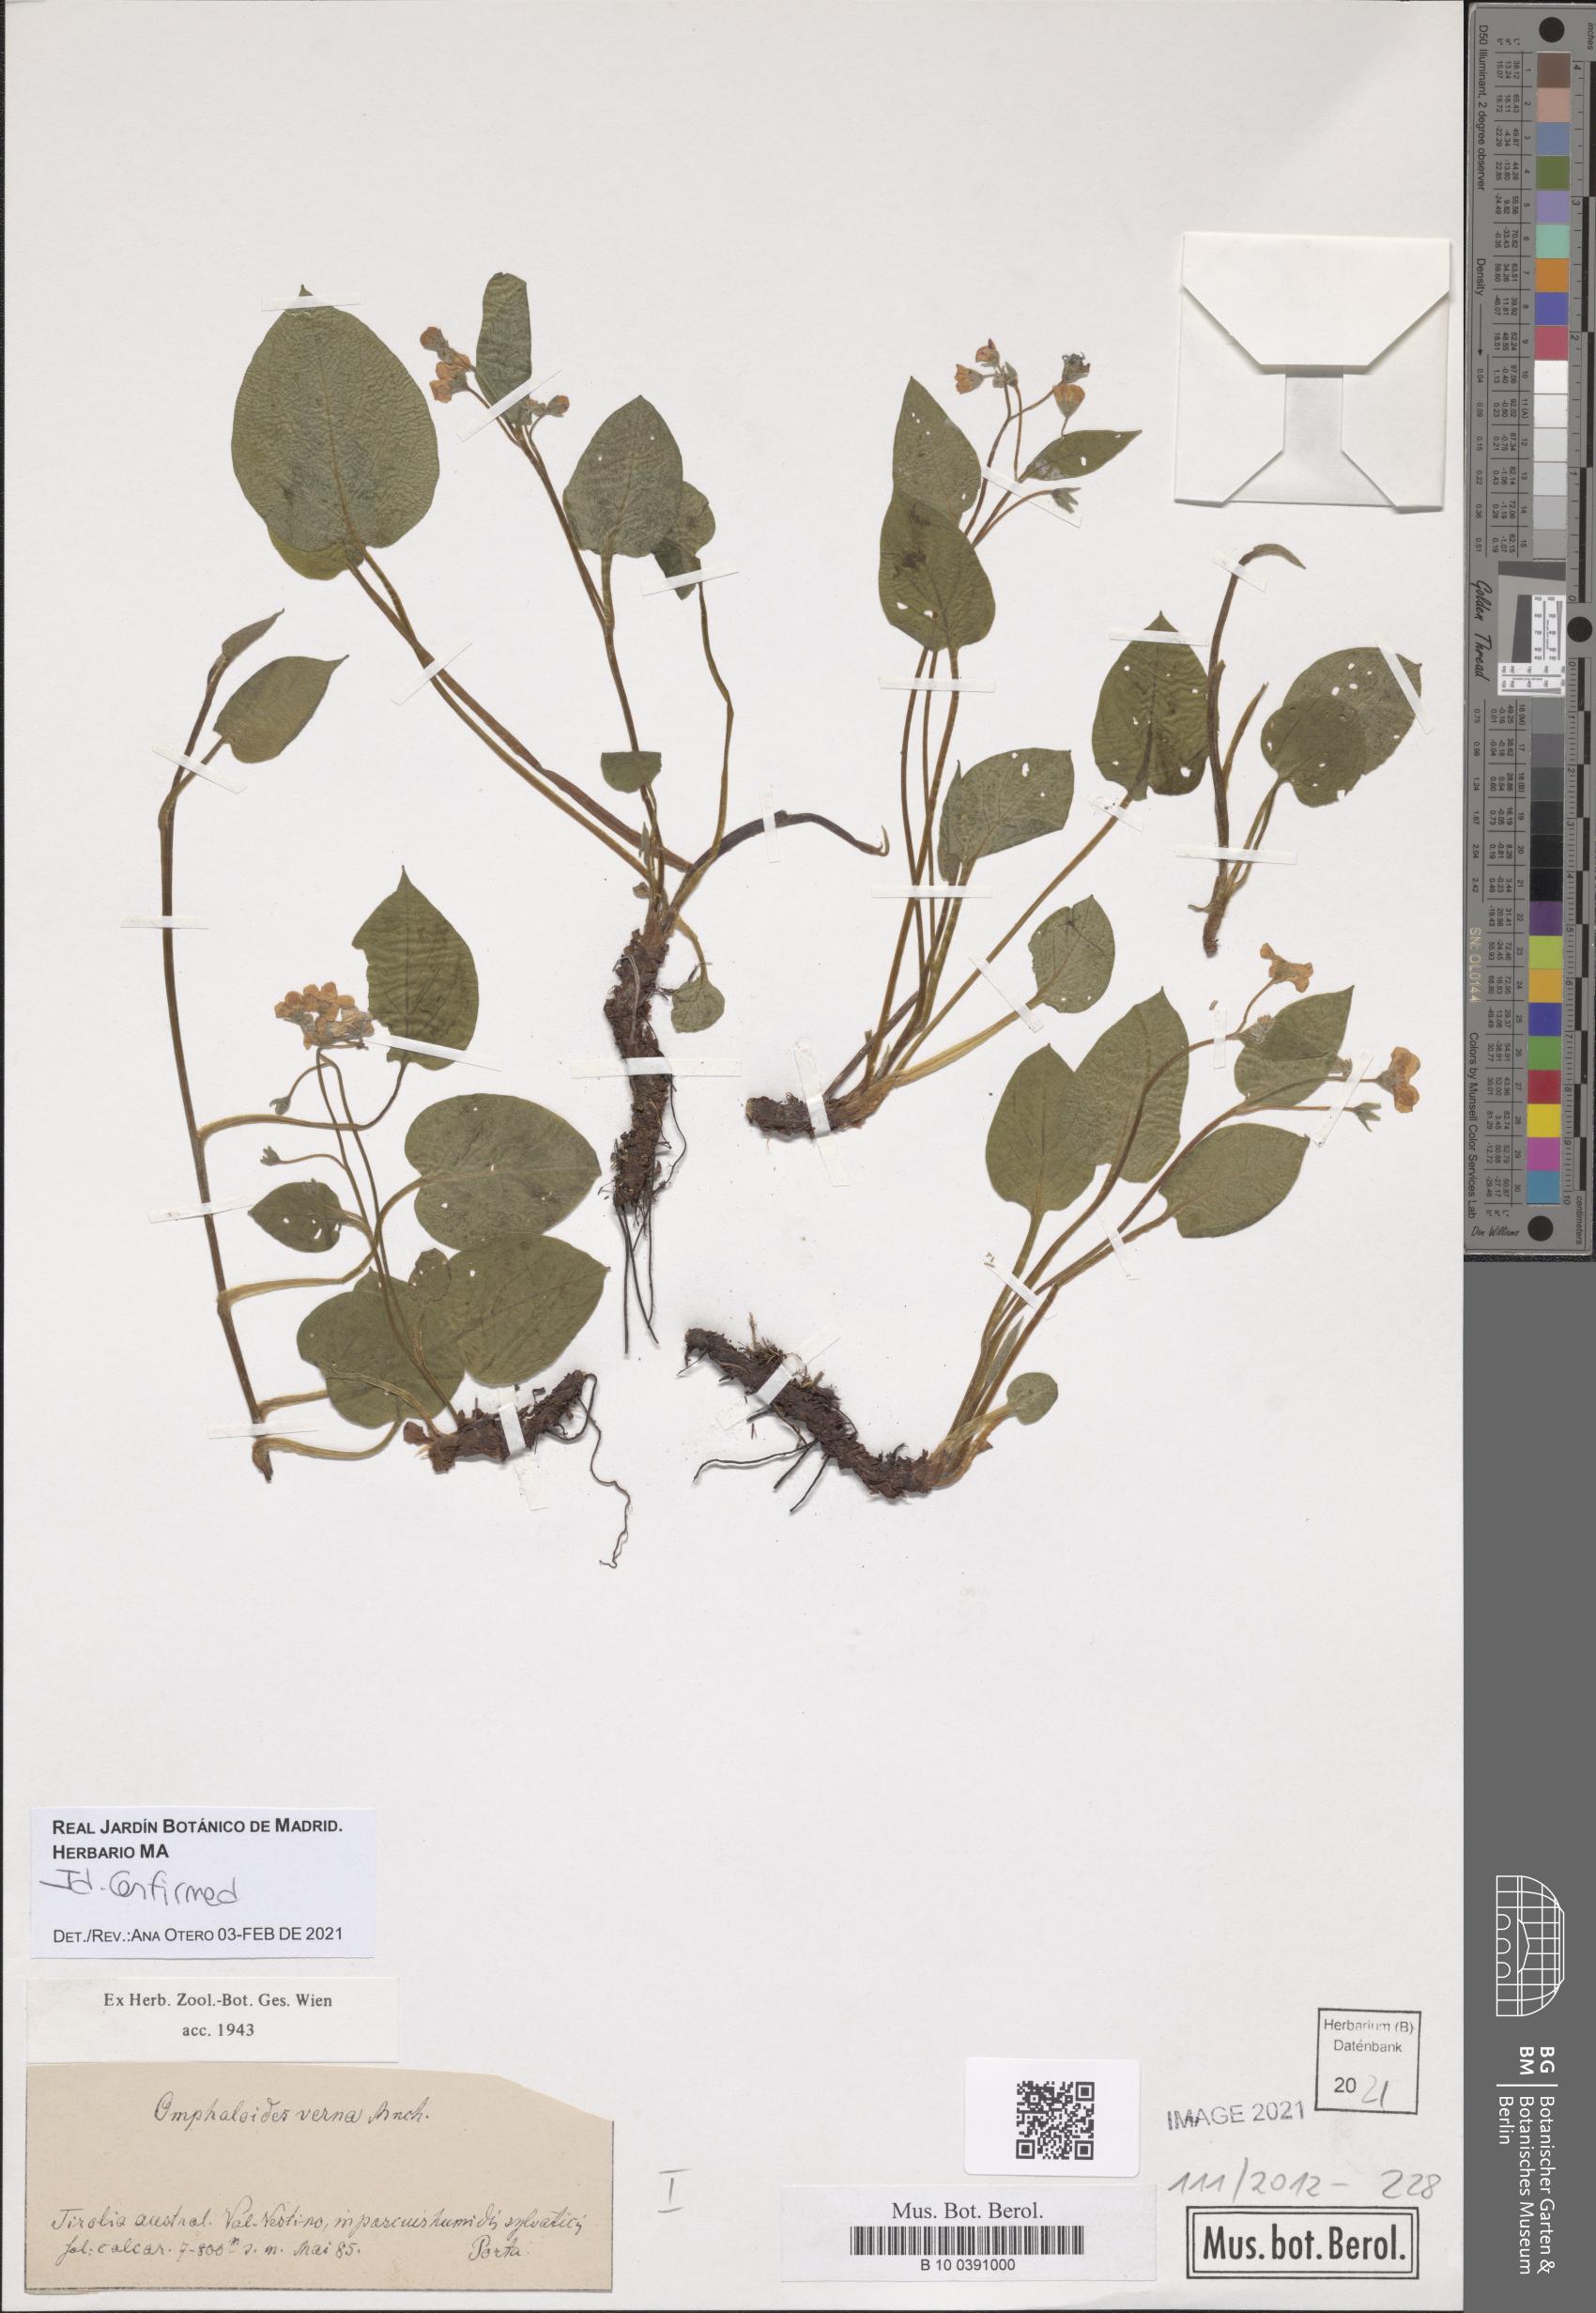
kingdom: Plantae
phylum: Tracheophyta
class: Magnoliopsida
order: Boraginales
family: Boraginaceae
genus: Omphalodes
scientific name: Omphalodes verna
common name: Blue-eyed-mary
